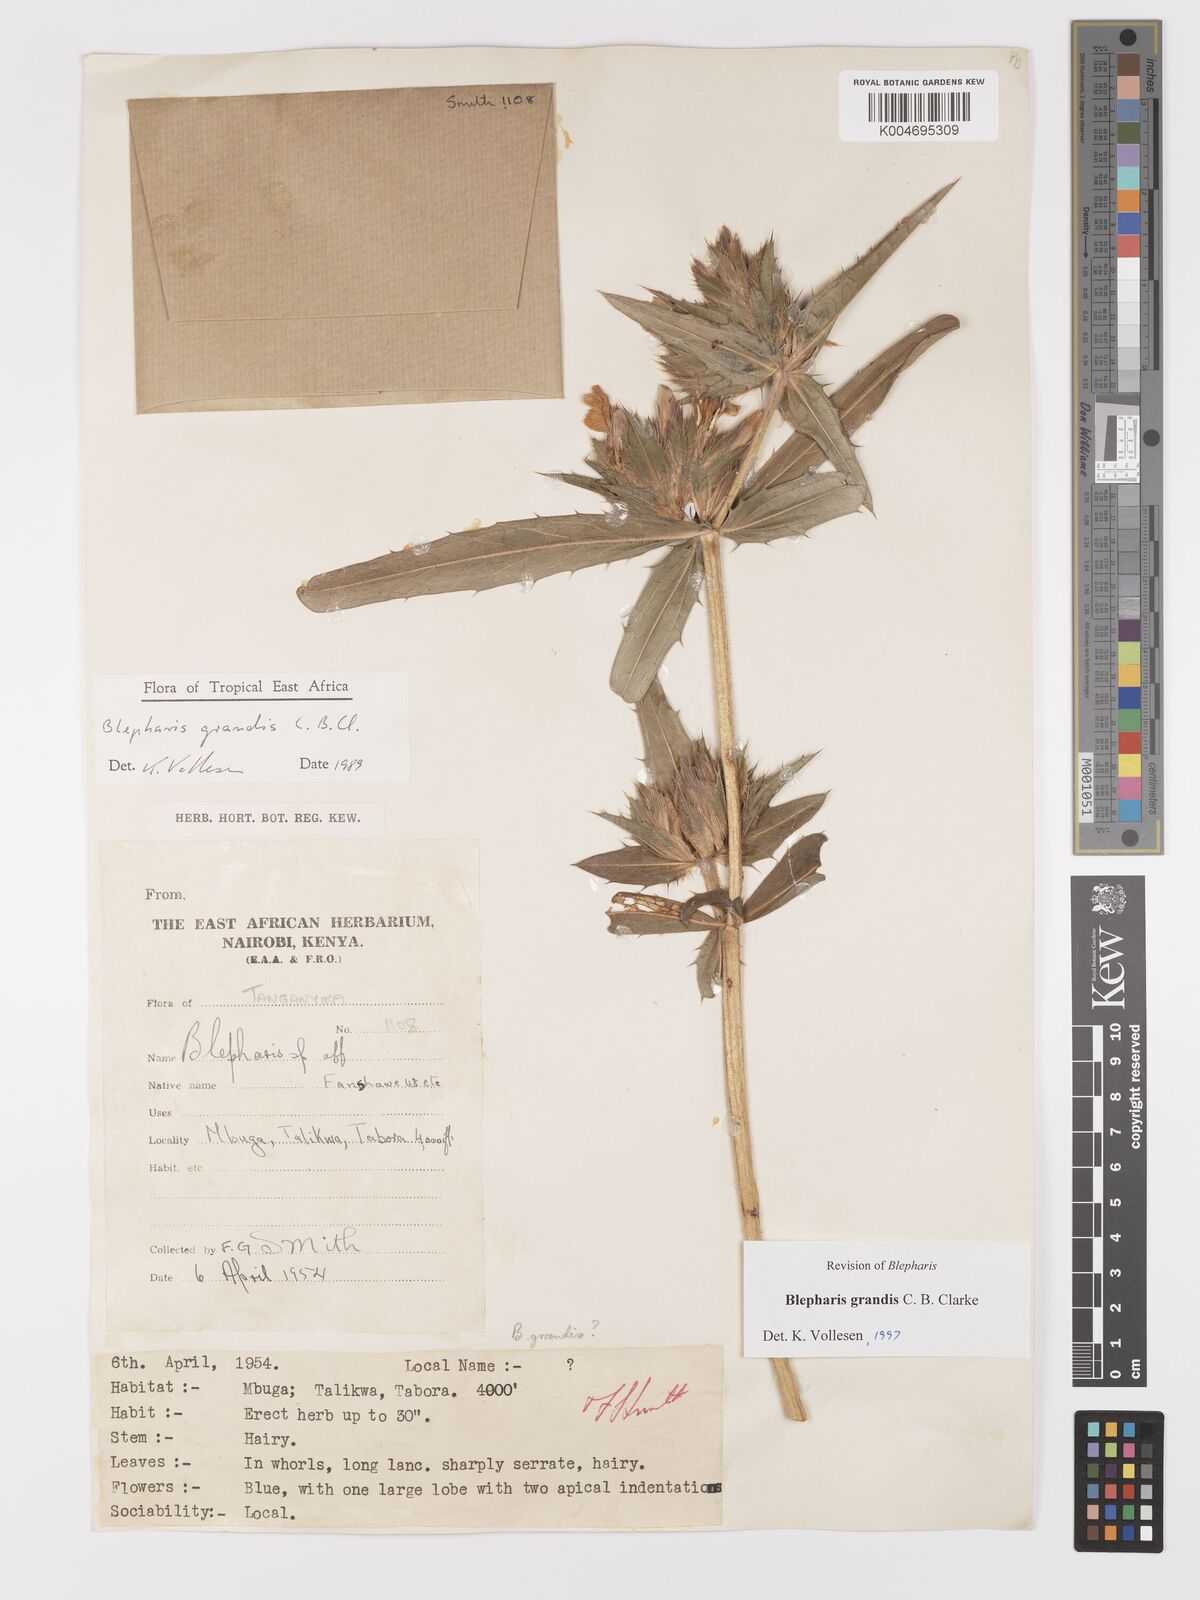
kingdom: Plantae
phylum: Tracheophyta
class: Magnoliopsida
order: Lamiales
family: Acanthaceae
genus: Blepharis
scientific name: Blepharis grandis
